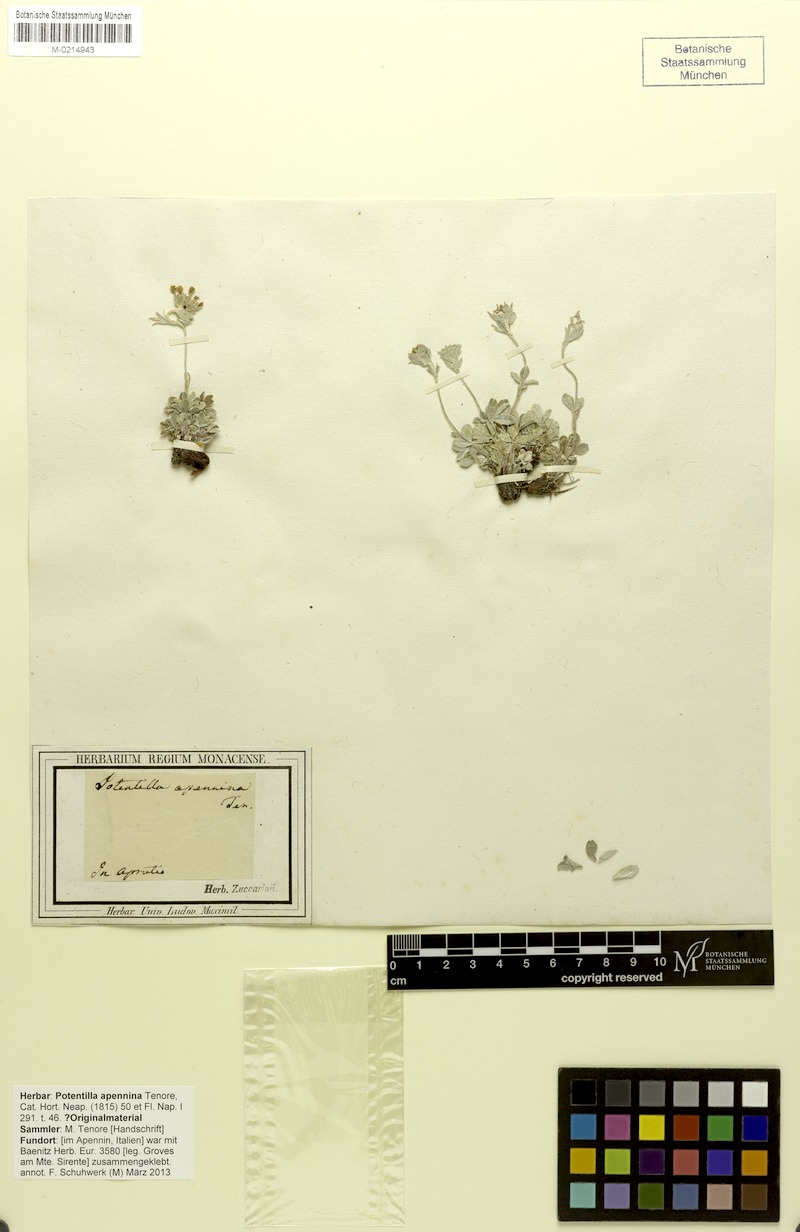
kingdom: Plantae
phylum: Tracheophyta
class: Magnoliopsida
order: Rosales
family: Rosaceae
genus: Potentilla
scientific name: Potentilla apennina
